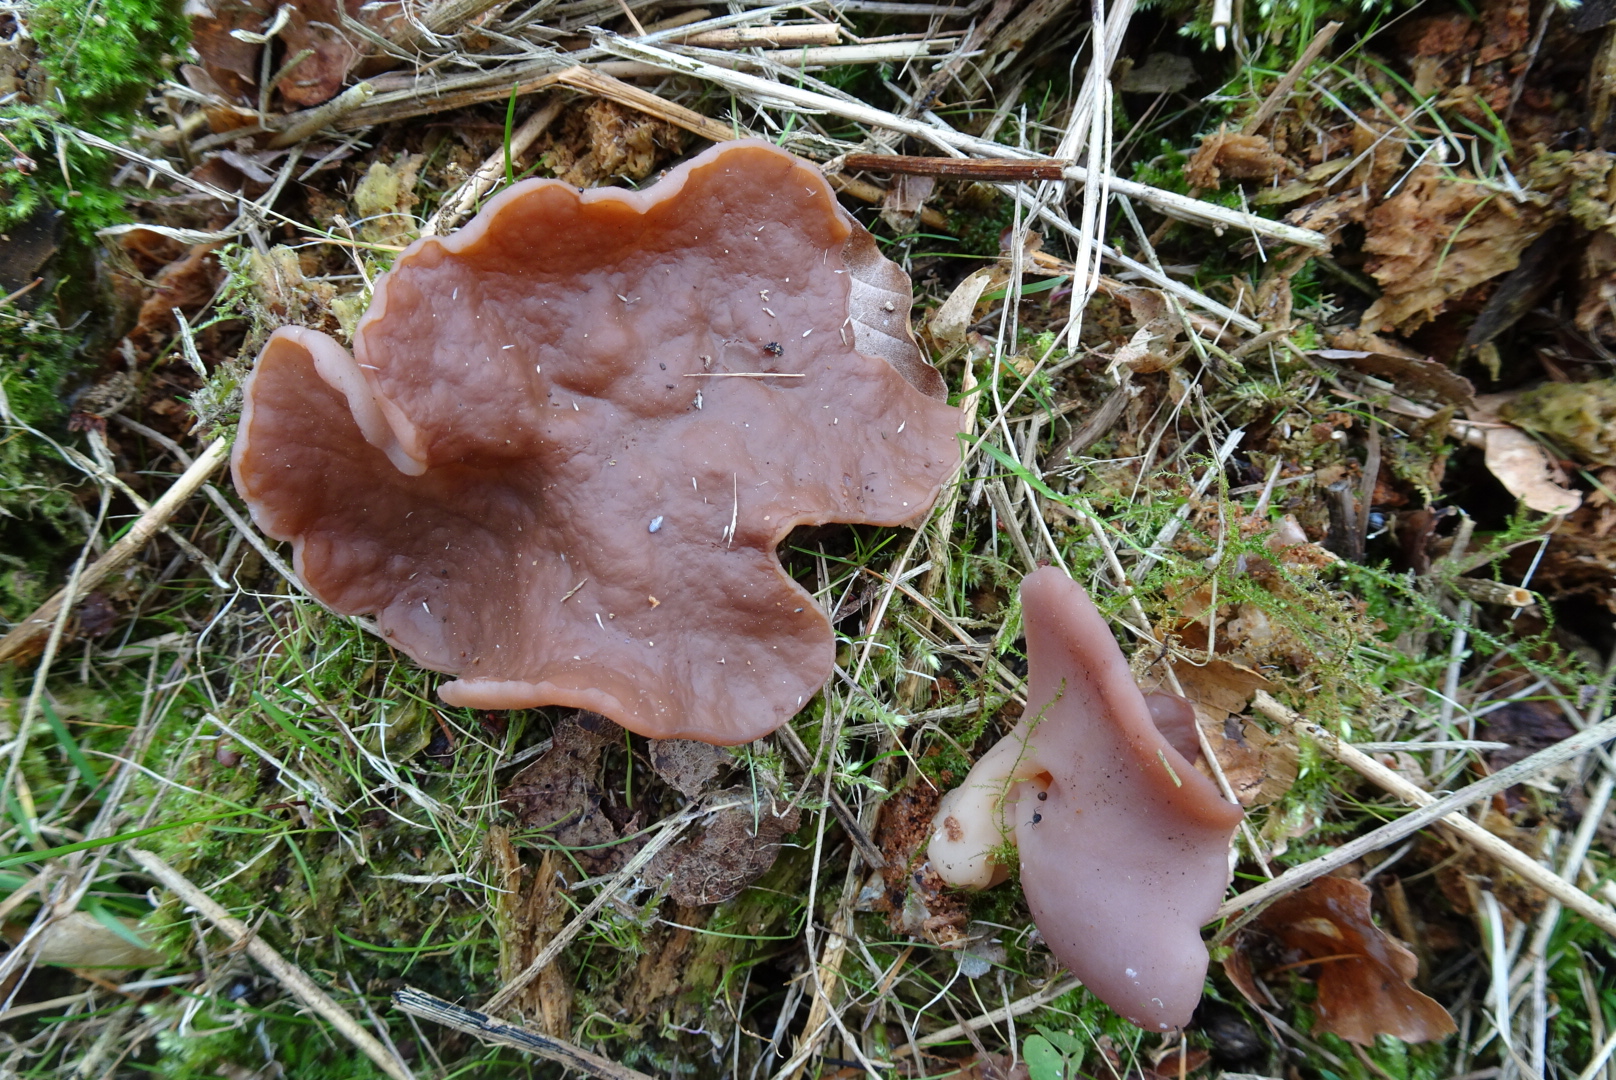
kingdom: Fungi
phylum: Ascomycota
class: Pezizomycetes
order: Pezizales
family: Discinaceae
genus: Discina
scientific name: Discina ancilis
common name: udbredt stenmorkel
